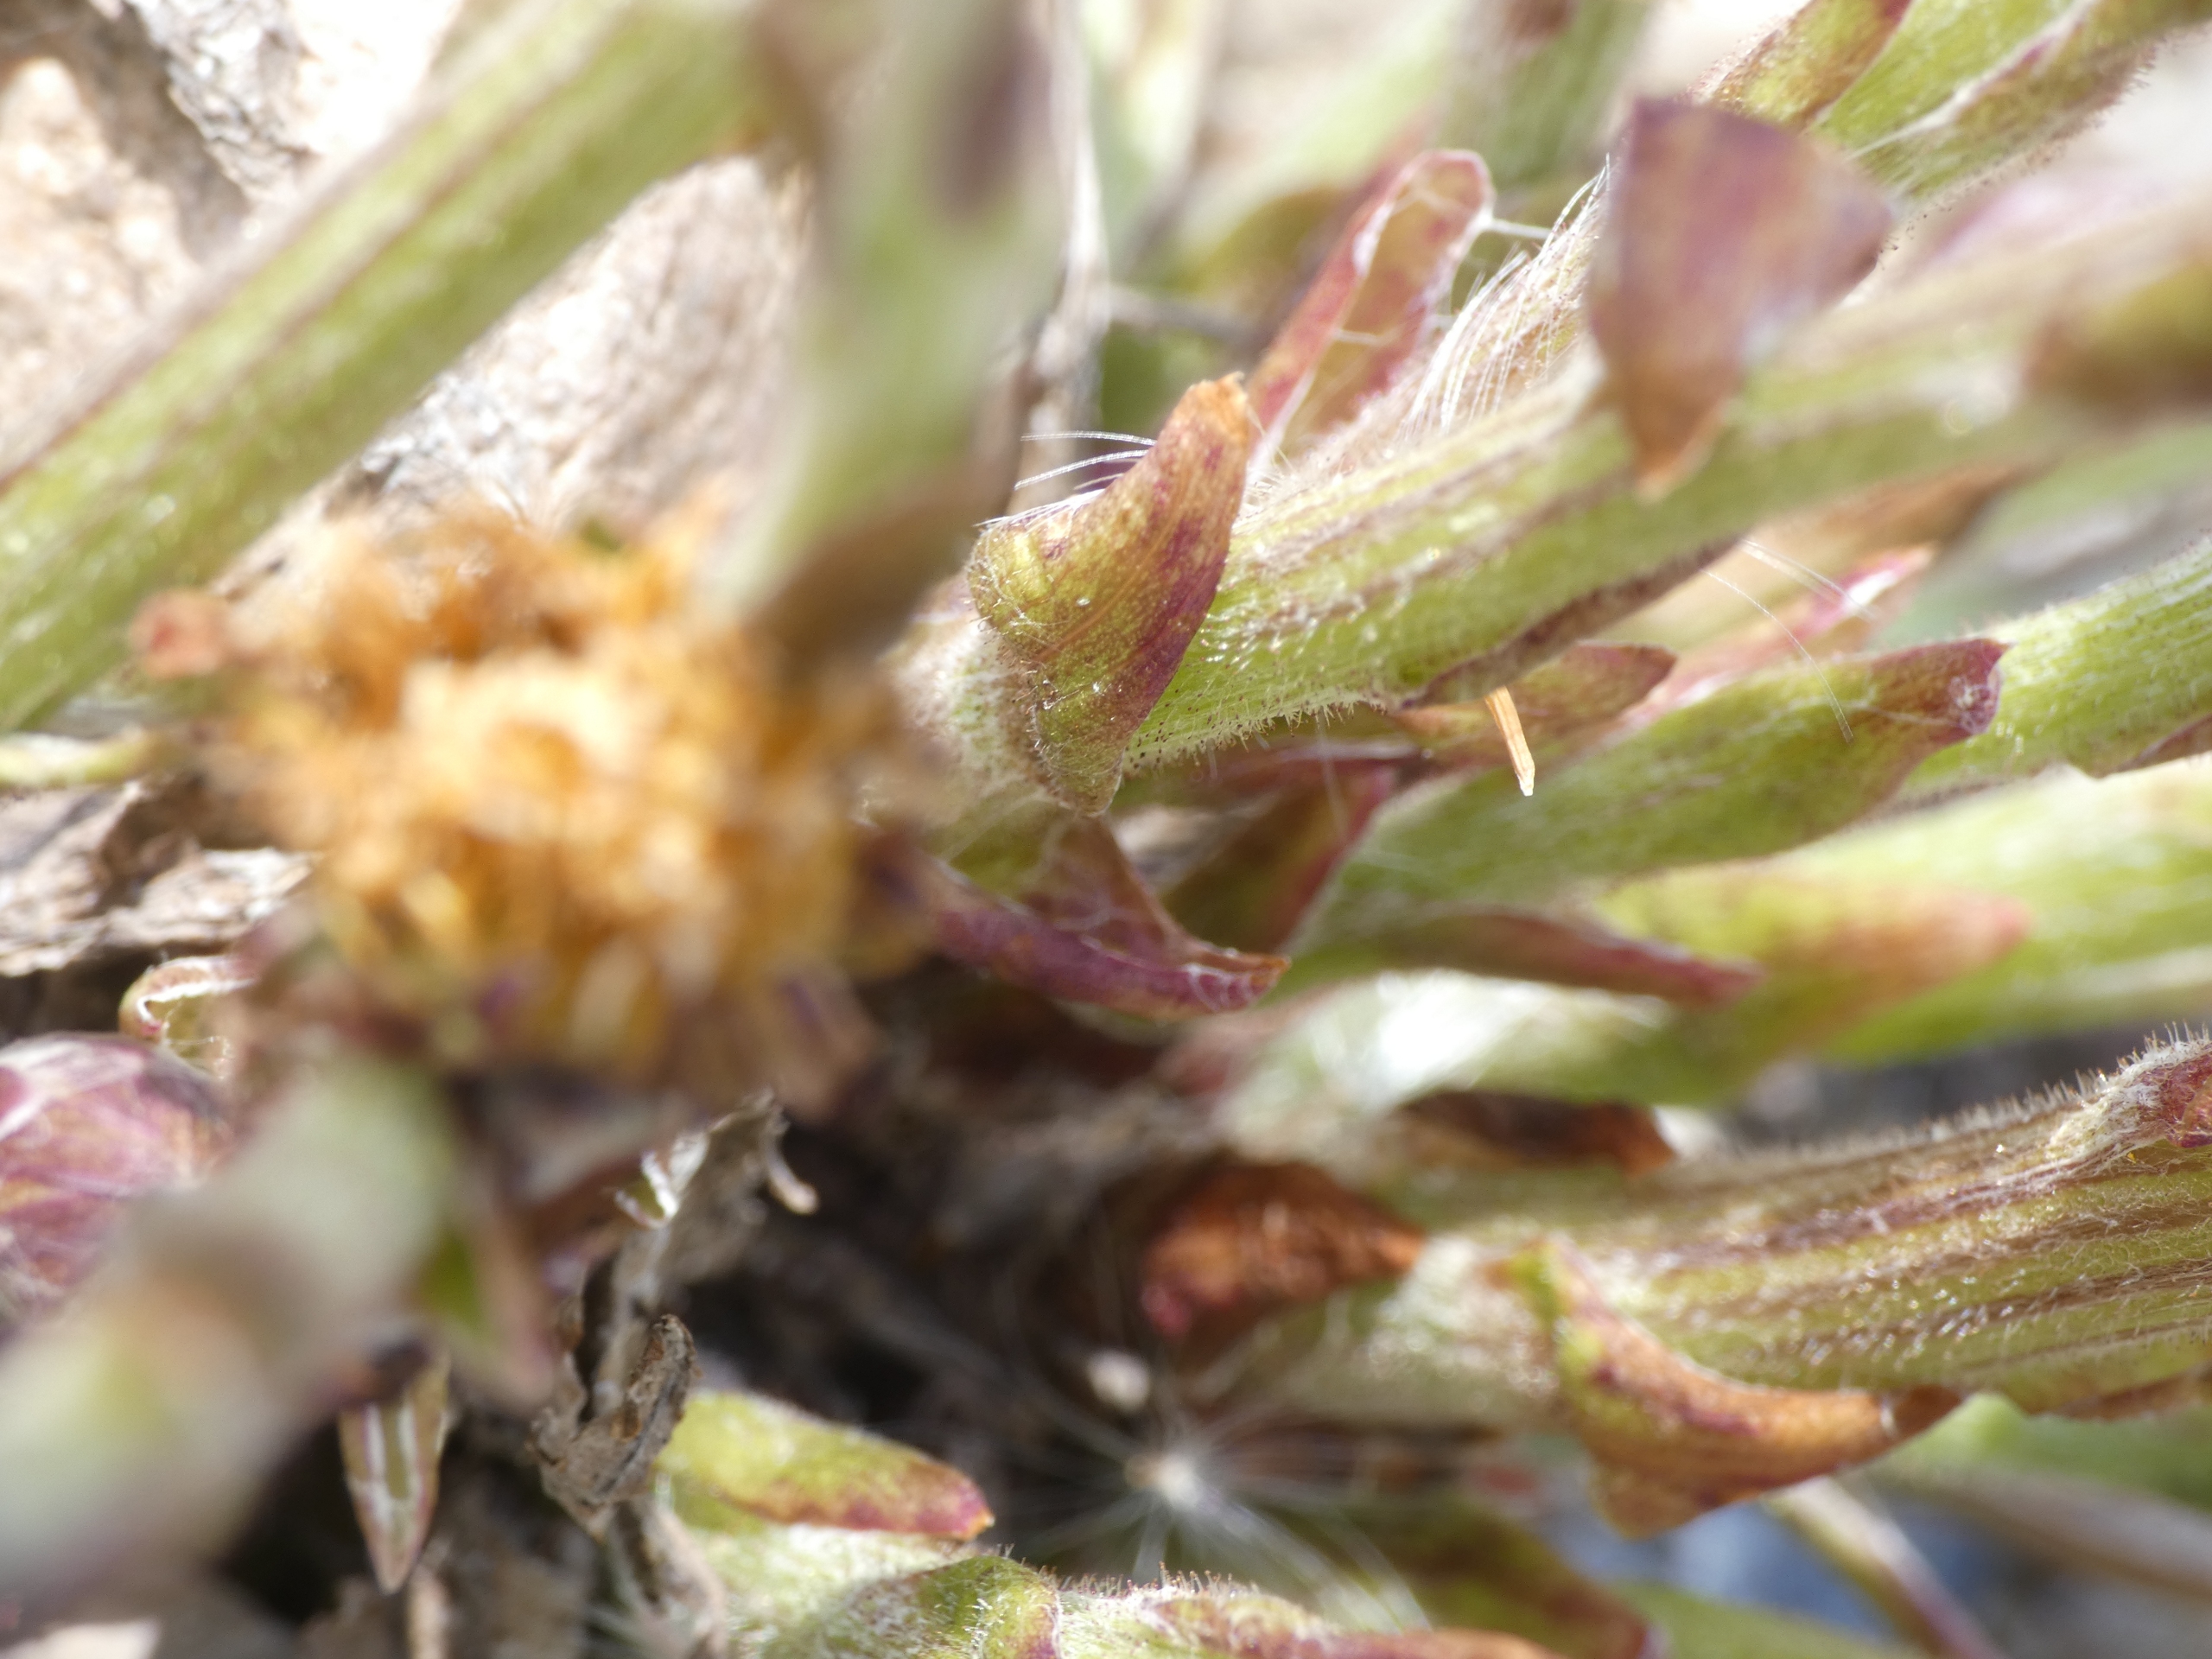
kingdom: Plantae
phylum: Tracheophyta
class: Magnoliopsida
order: Asterales
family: Asteraceae
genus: Tussilago
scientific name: Tussilago farfara
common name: Følfod
